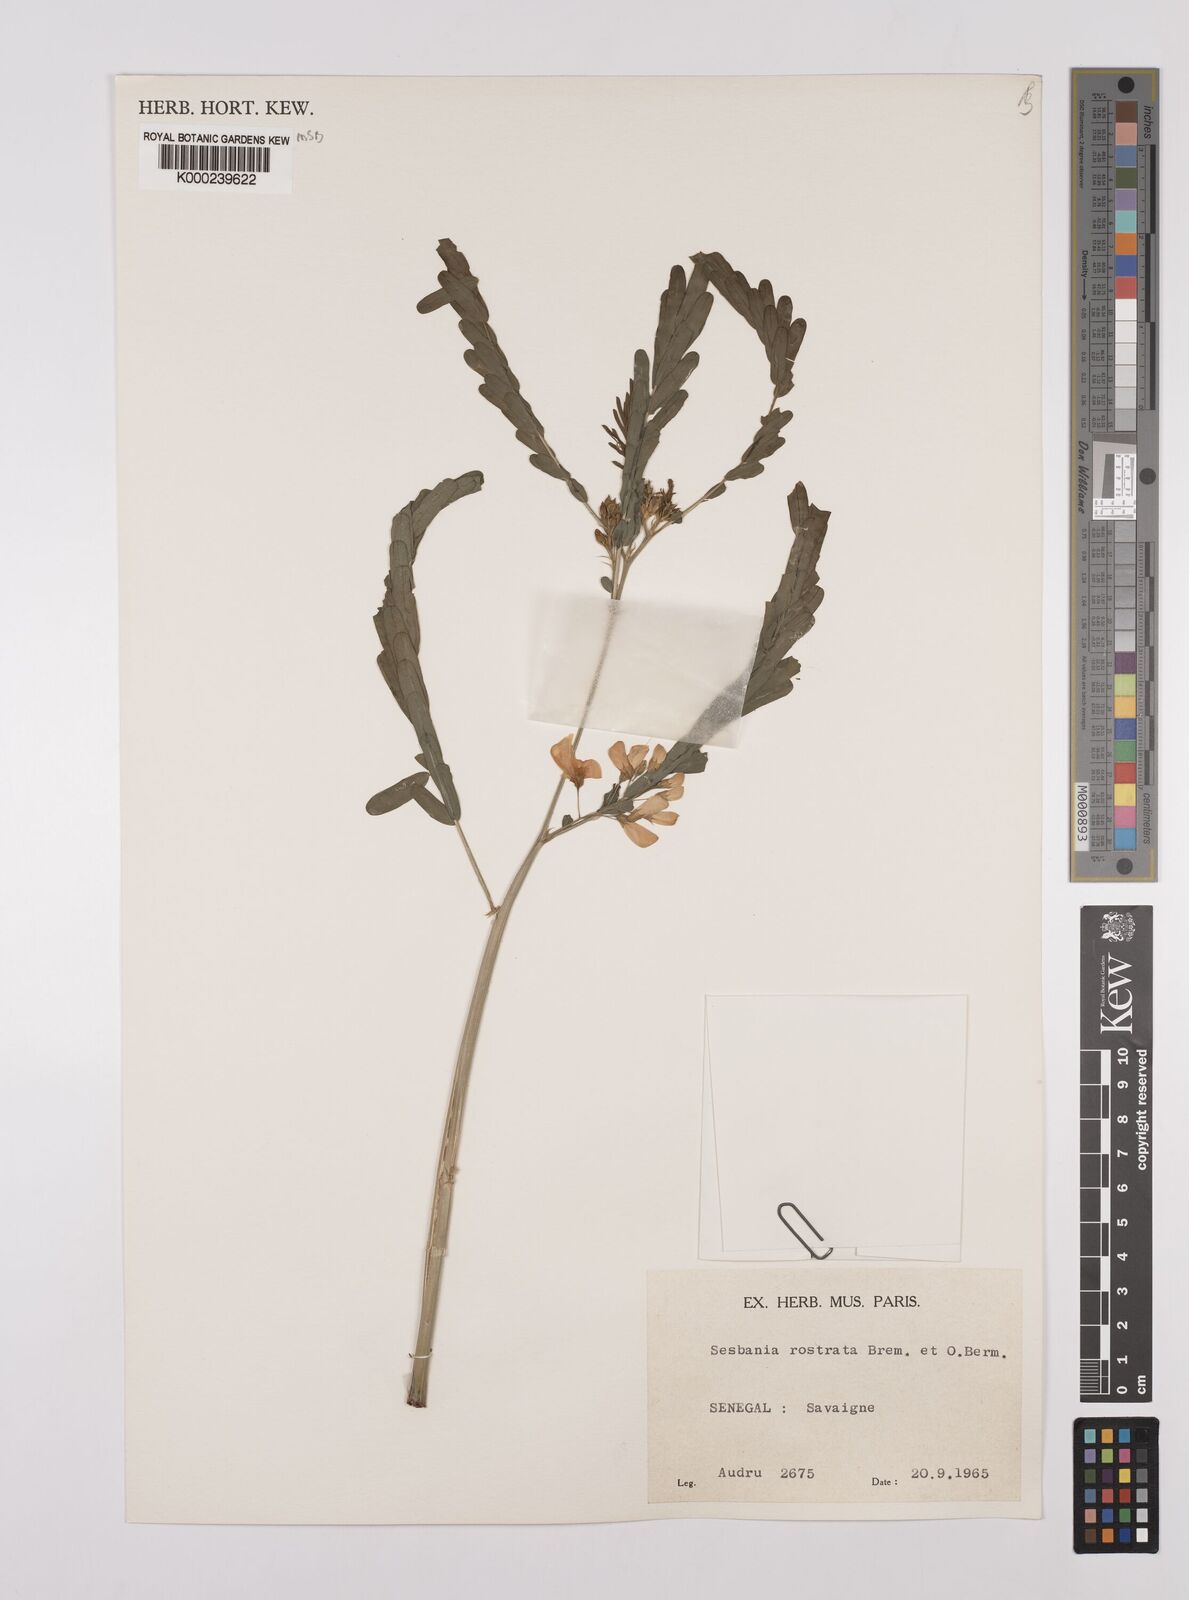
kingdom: Plantae
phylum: Tracheophyta
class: Magnoliopsida
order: Fabales
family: Fabaceae
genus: Sesbania
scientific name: Sesbania rostrata
